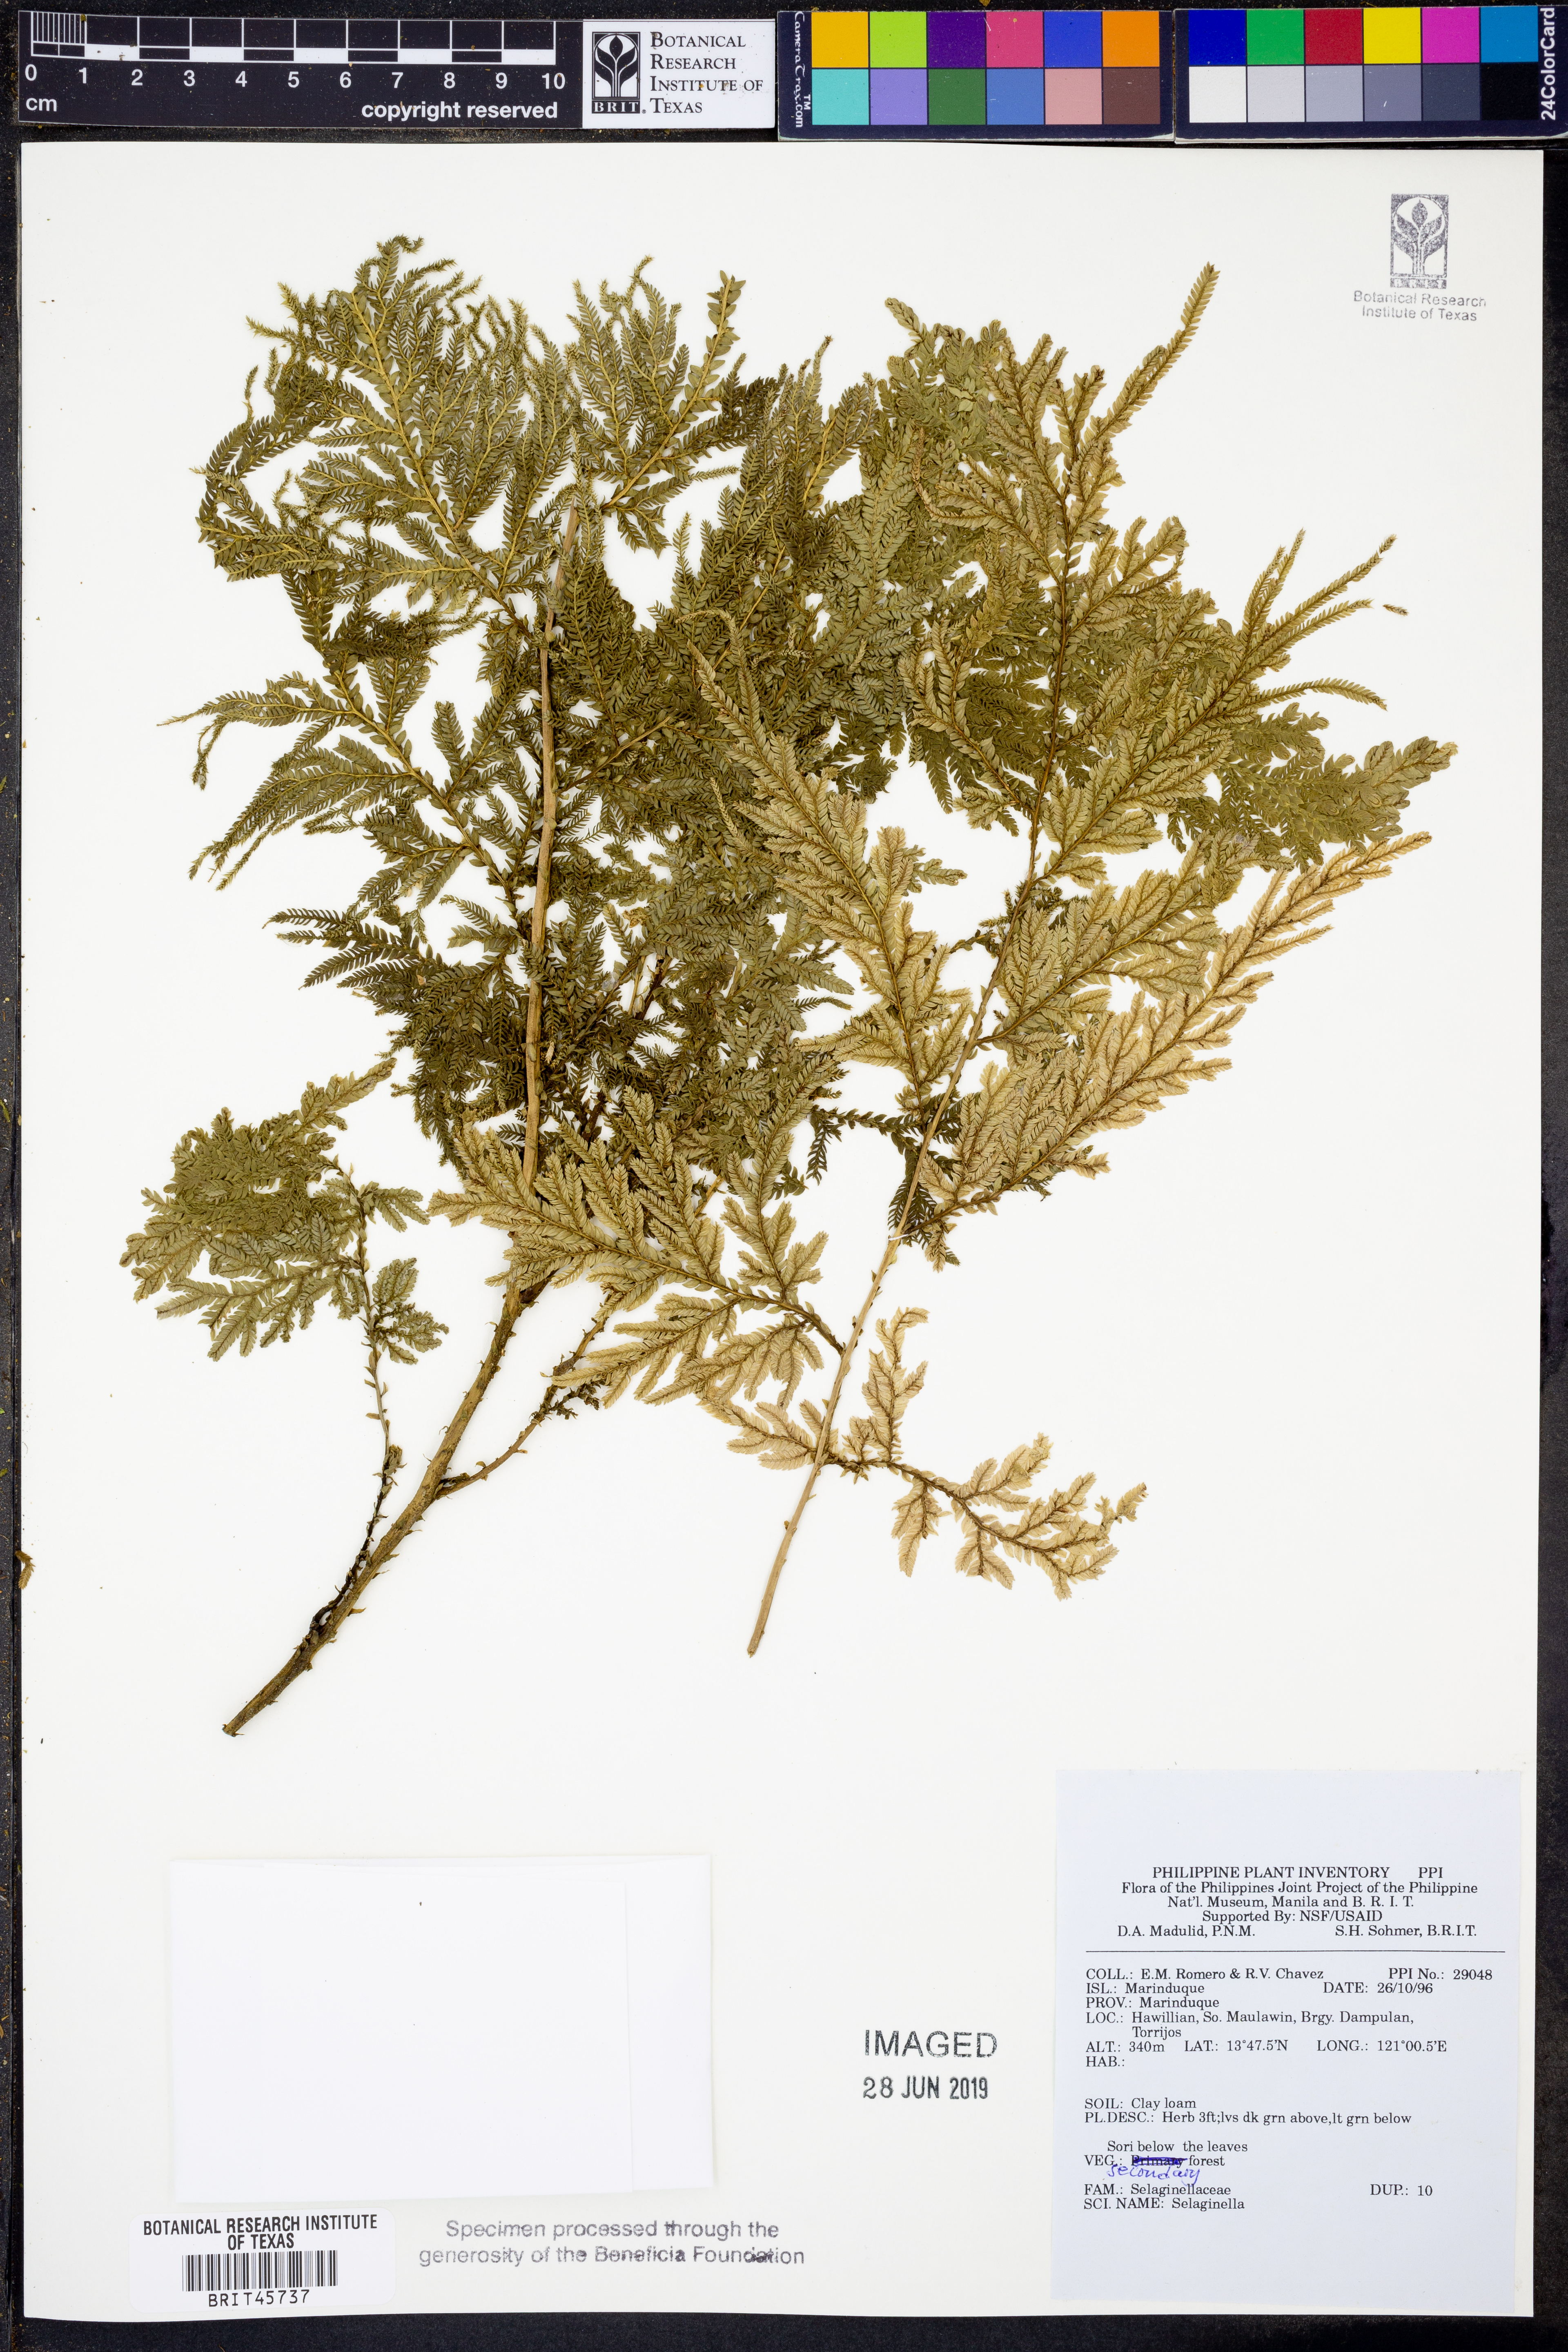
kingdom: Plantae
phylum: Tracheophyta
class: Lycopodiopsida
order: Selaginellales
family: Selaginellaceae
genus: Selaginella
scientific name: Selaginella
